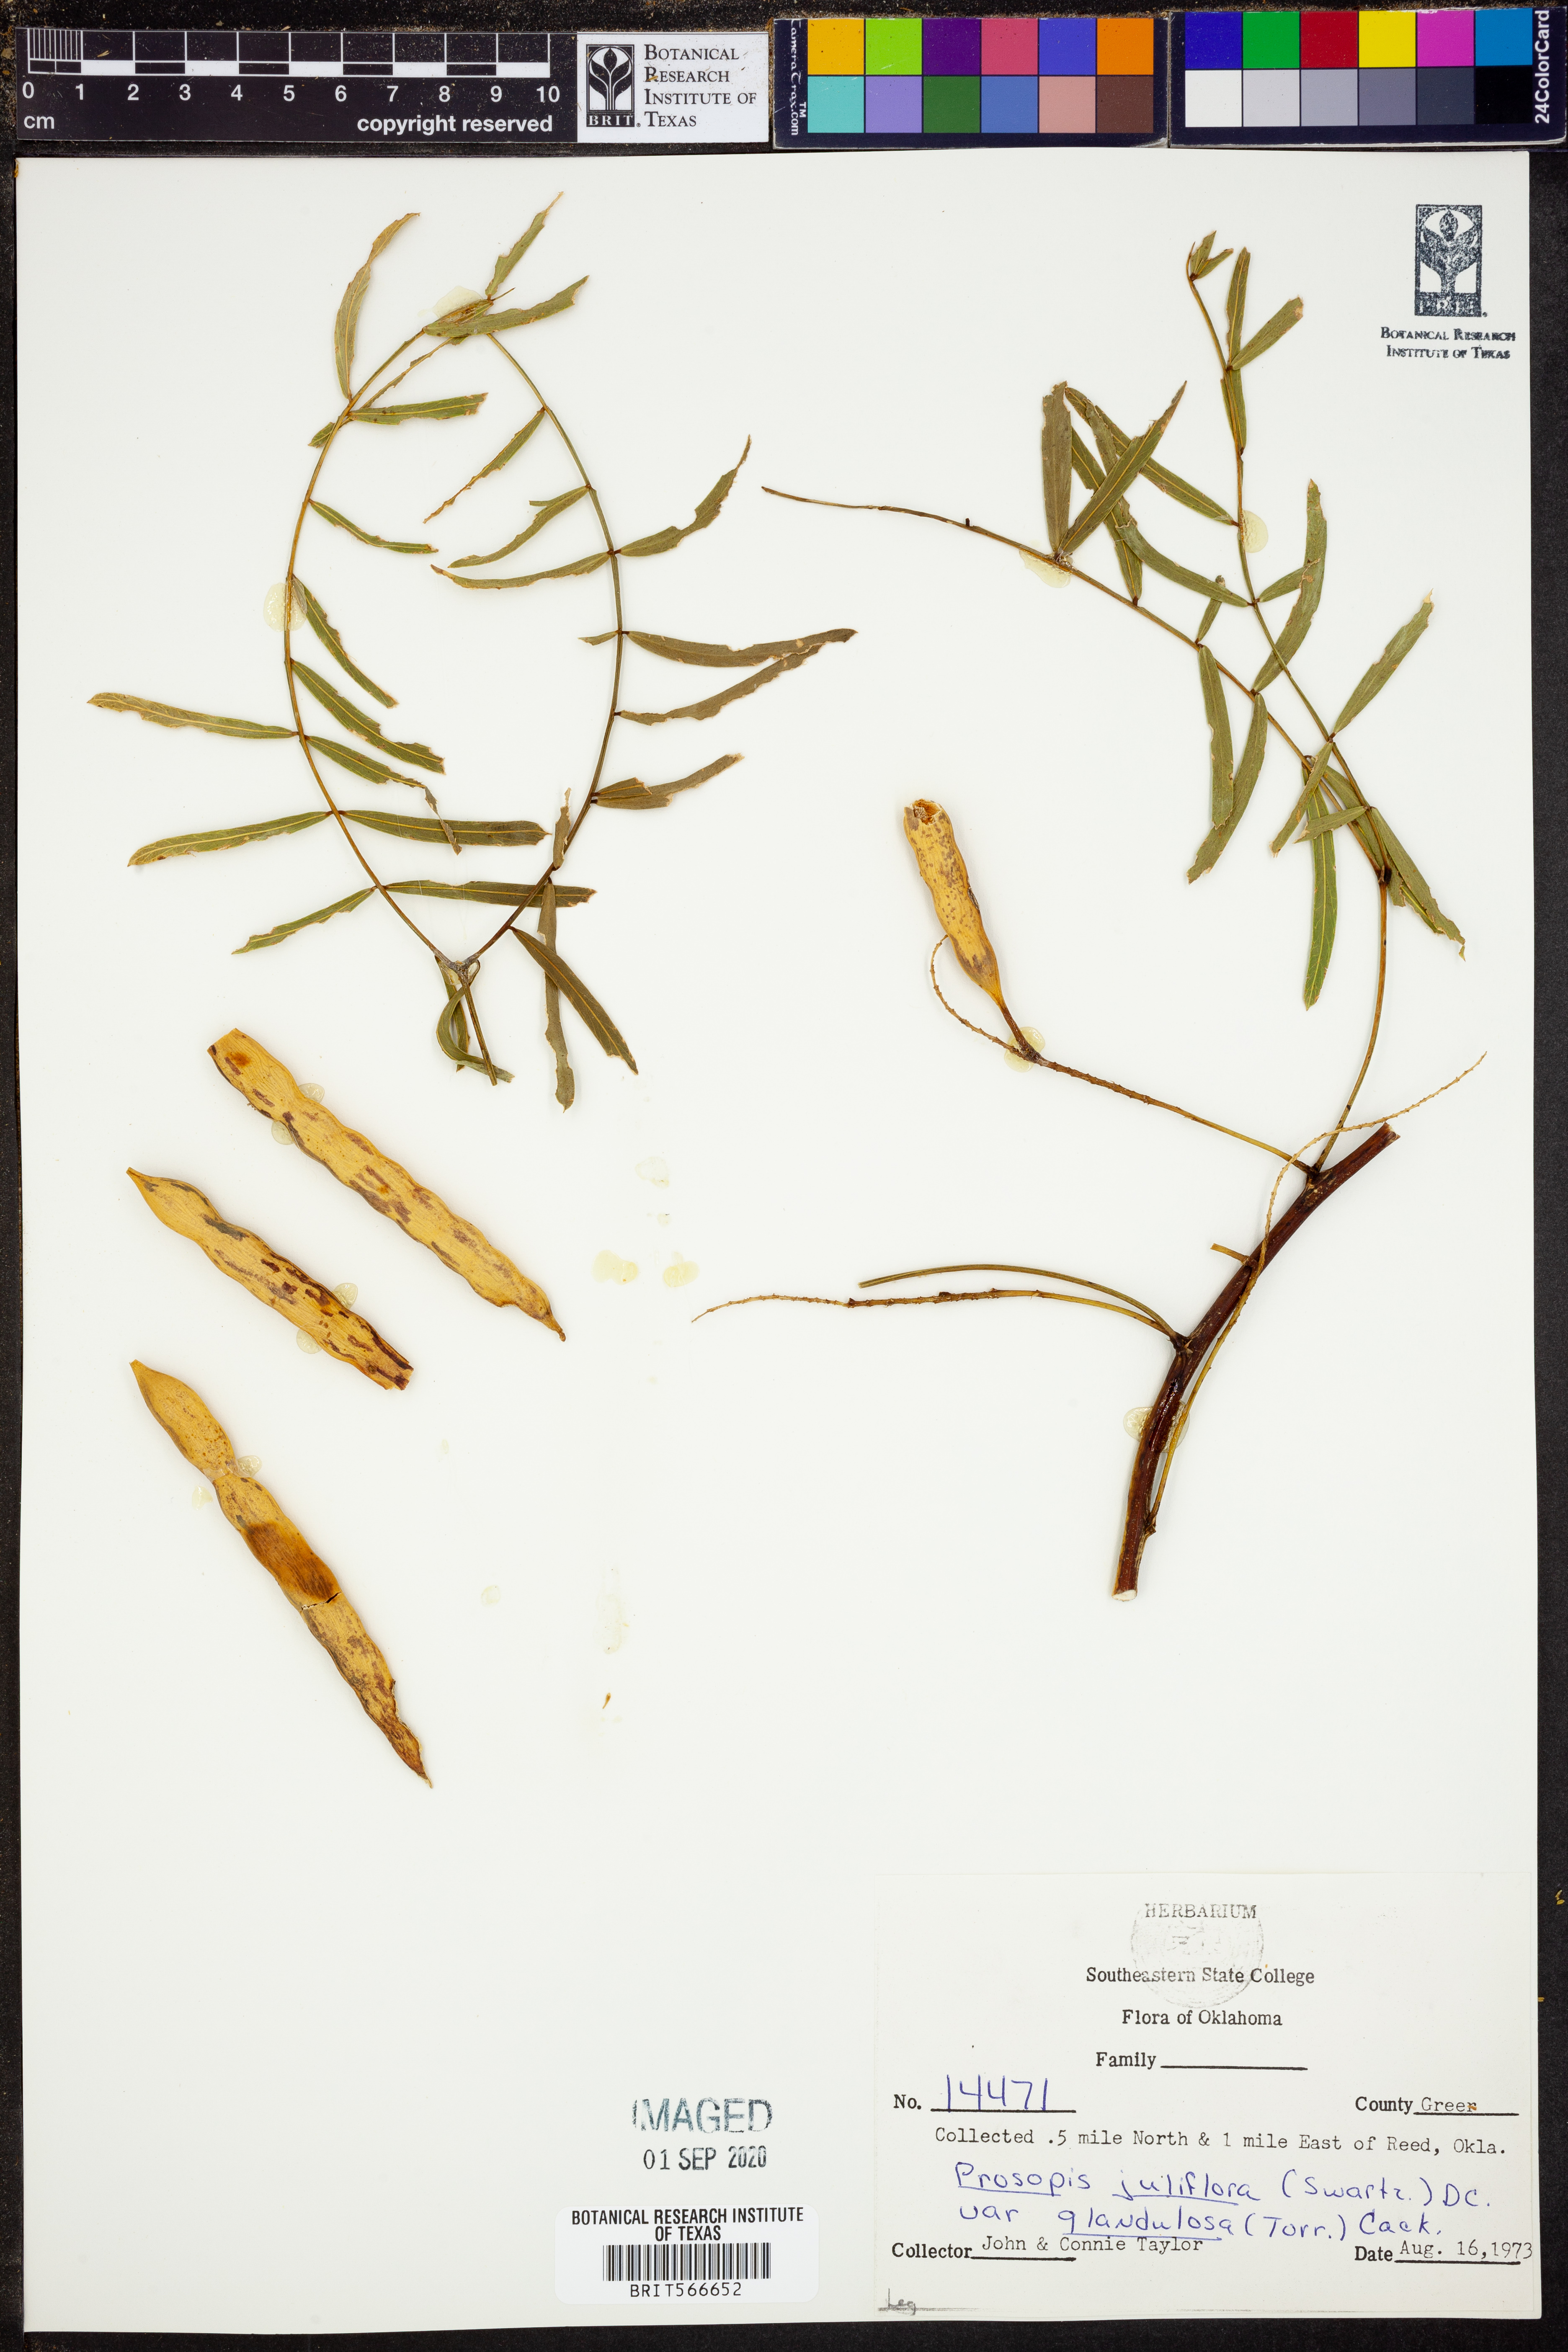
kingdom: Plantae
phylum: Tracheophyta
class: Magnoliopsida
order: Fabales
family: Fabaceae
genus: Prosopis
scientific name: Prosopis glandulosa
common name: Honey mesquite
